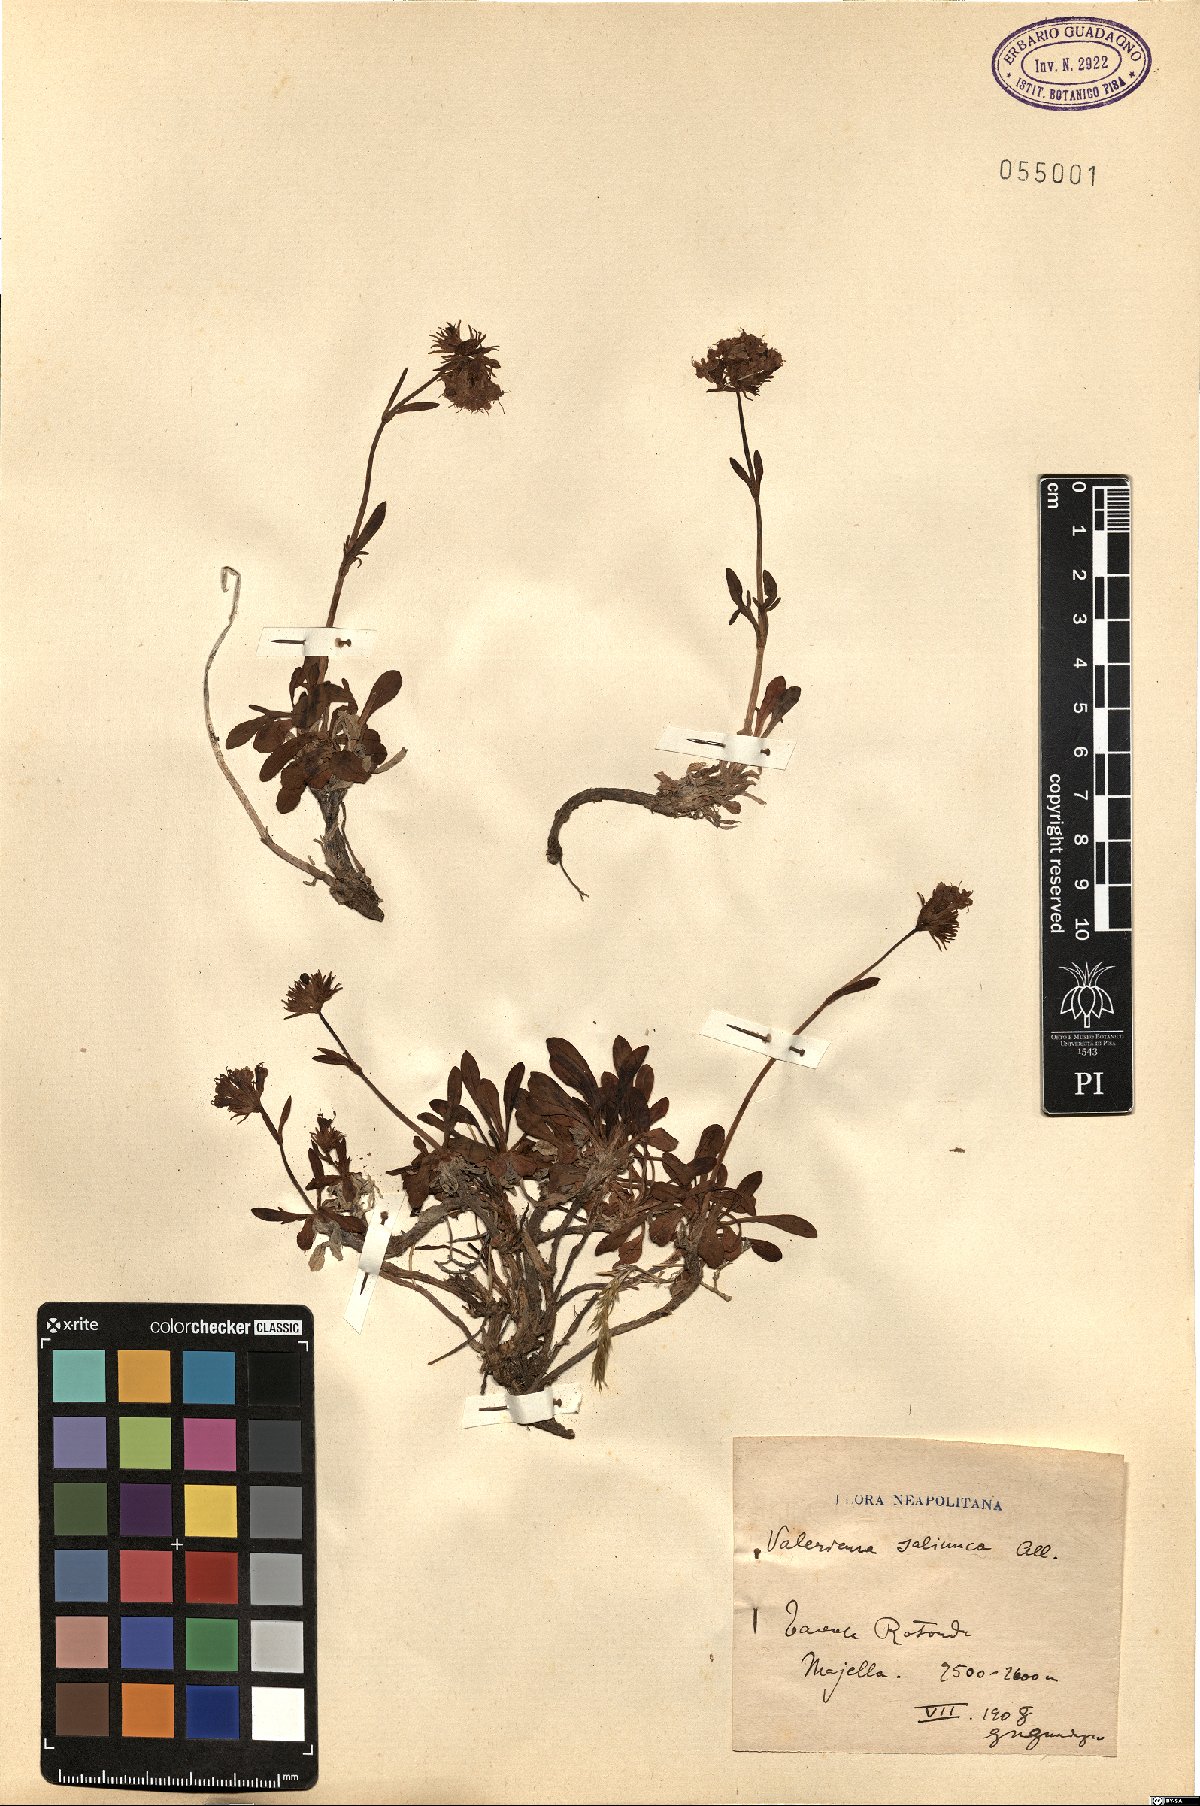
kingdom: Plantae
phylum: Tracheophyta
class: Magnoliopsida
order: Dipsacales
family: Caprifoliaceae
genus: Valeriana
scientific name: Valeriana saliunca
